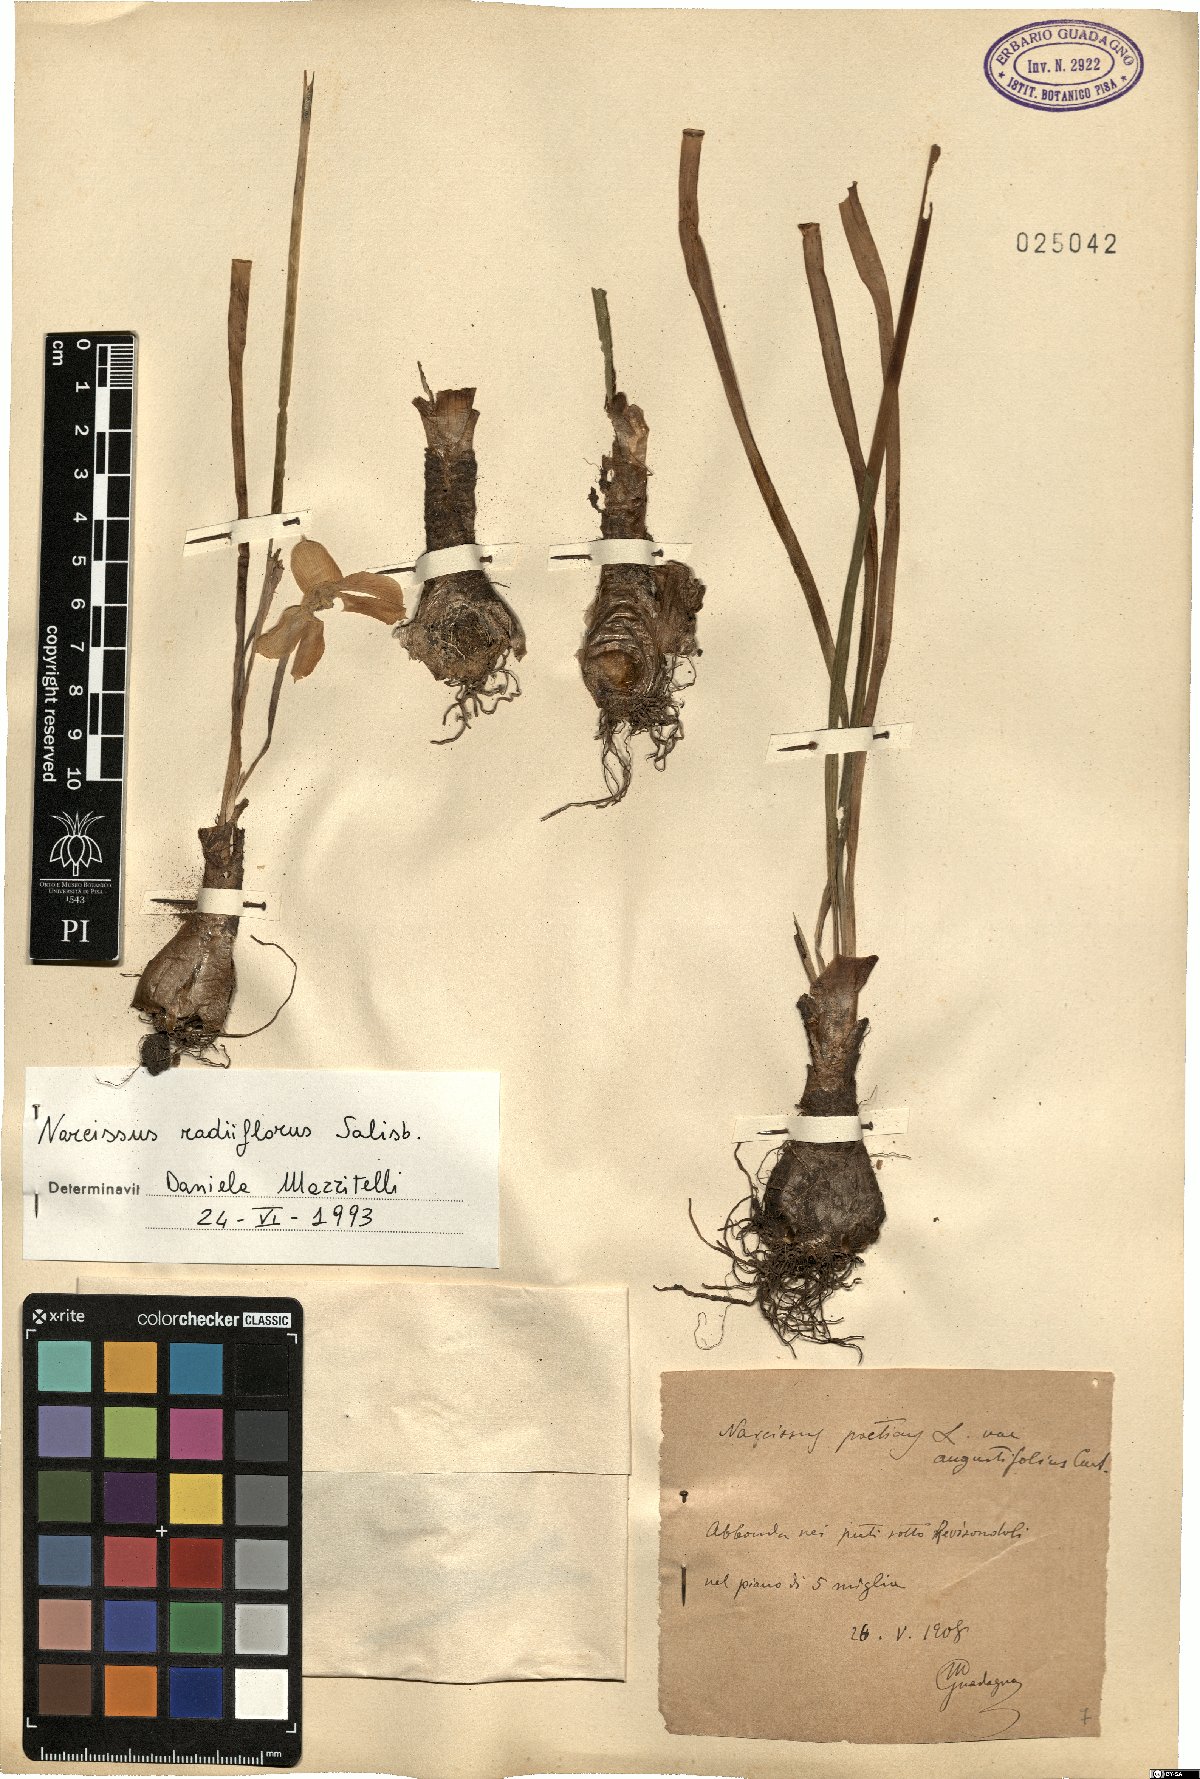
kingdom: Plantae
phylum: Tracheophyta
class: Liliopsida
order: Asparagales
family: Amaryllidaceae
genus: Narcissus
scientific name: Narcissus poeticus
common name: Pheasant's-eye daffodil
